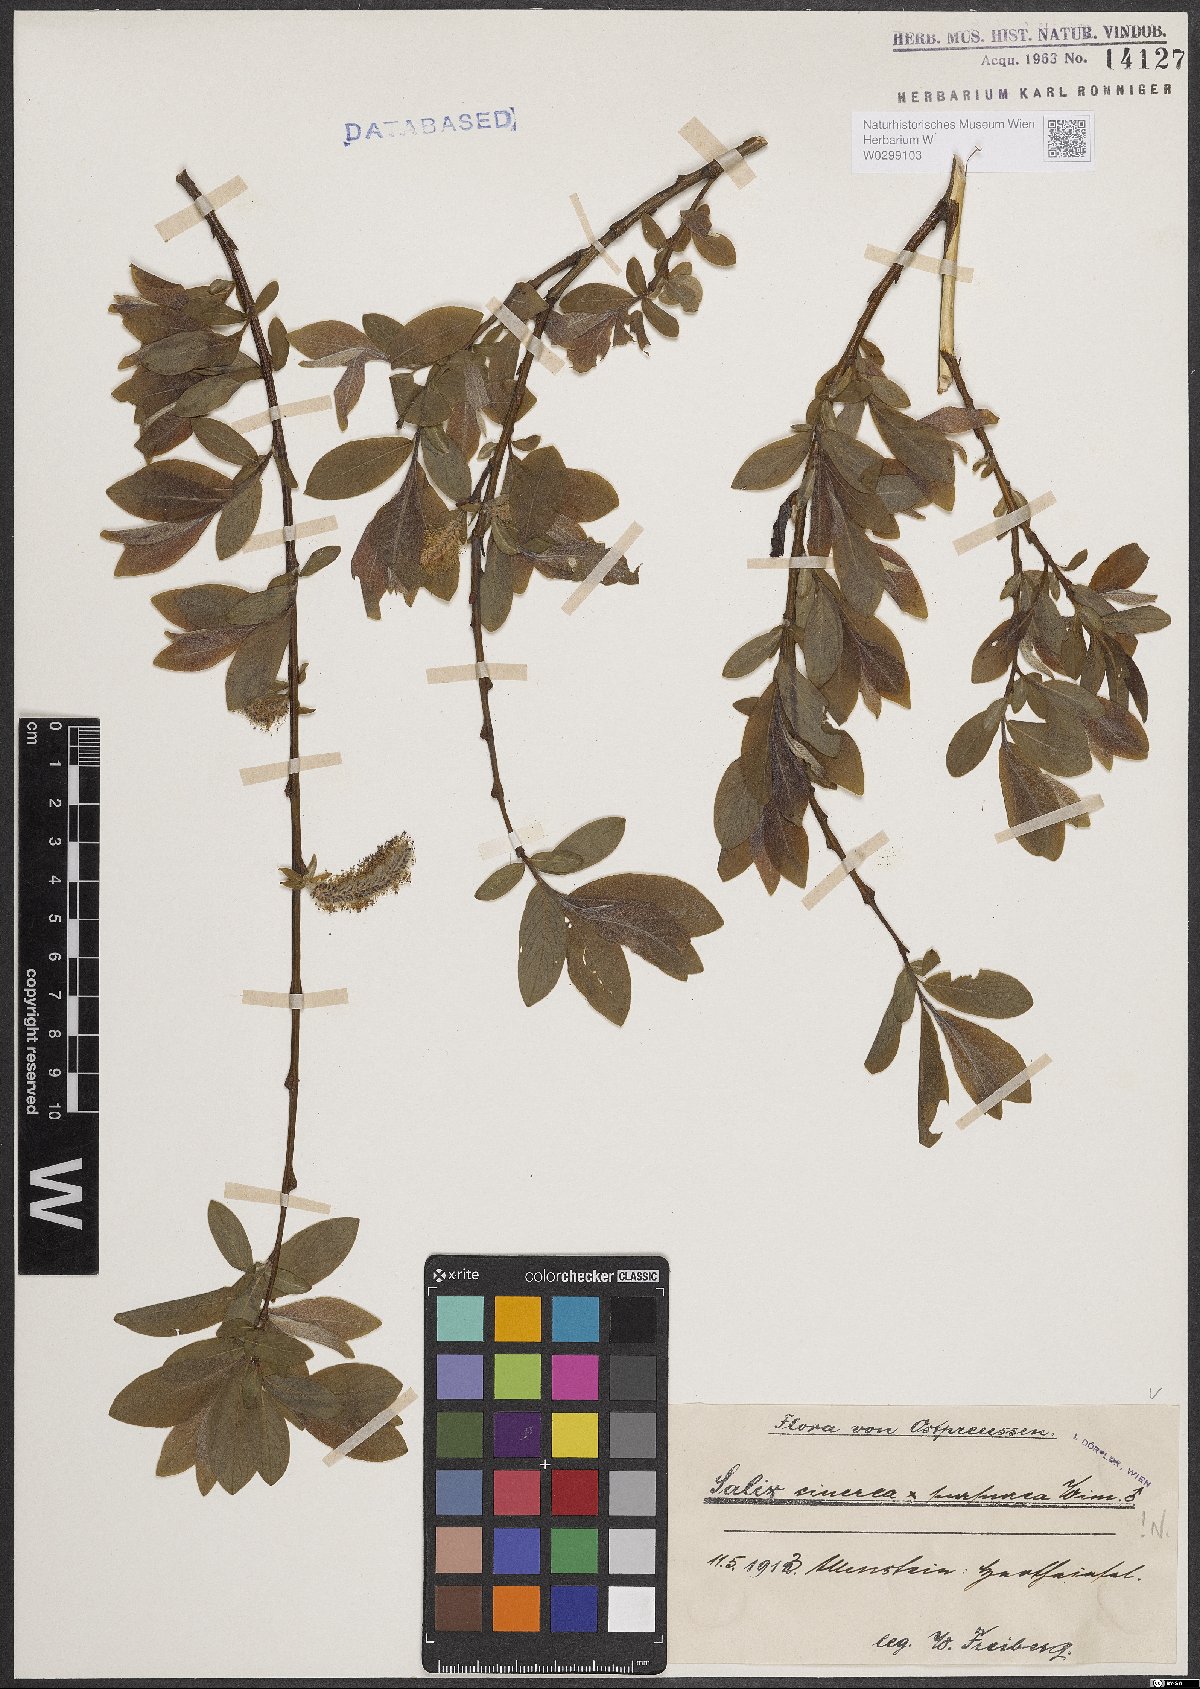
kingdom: Plantae
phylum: Tracheophyta
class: Magnoliopsida
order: Malpighiales
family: Salicaceae
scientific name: Salicaceae
